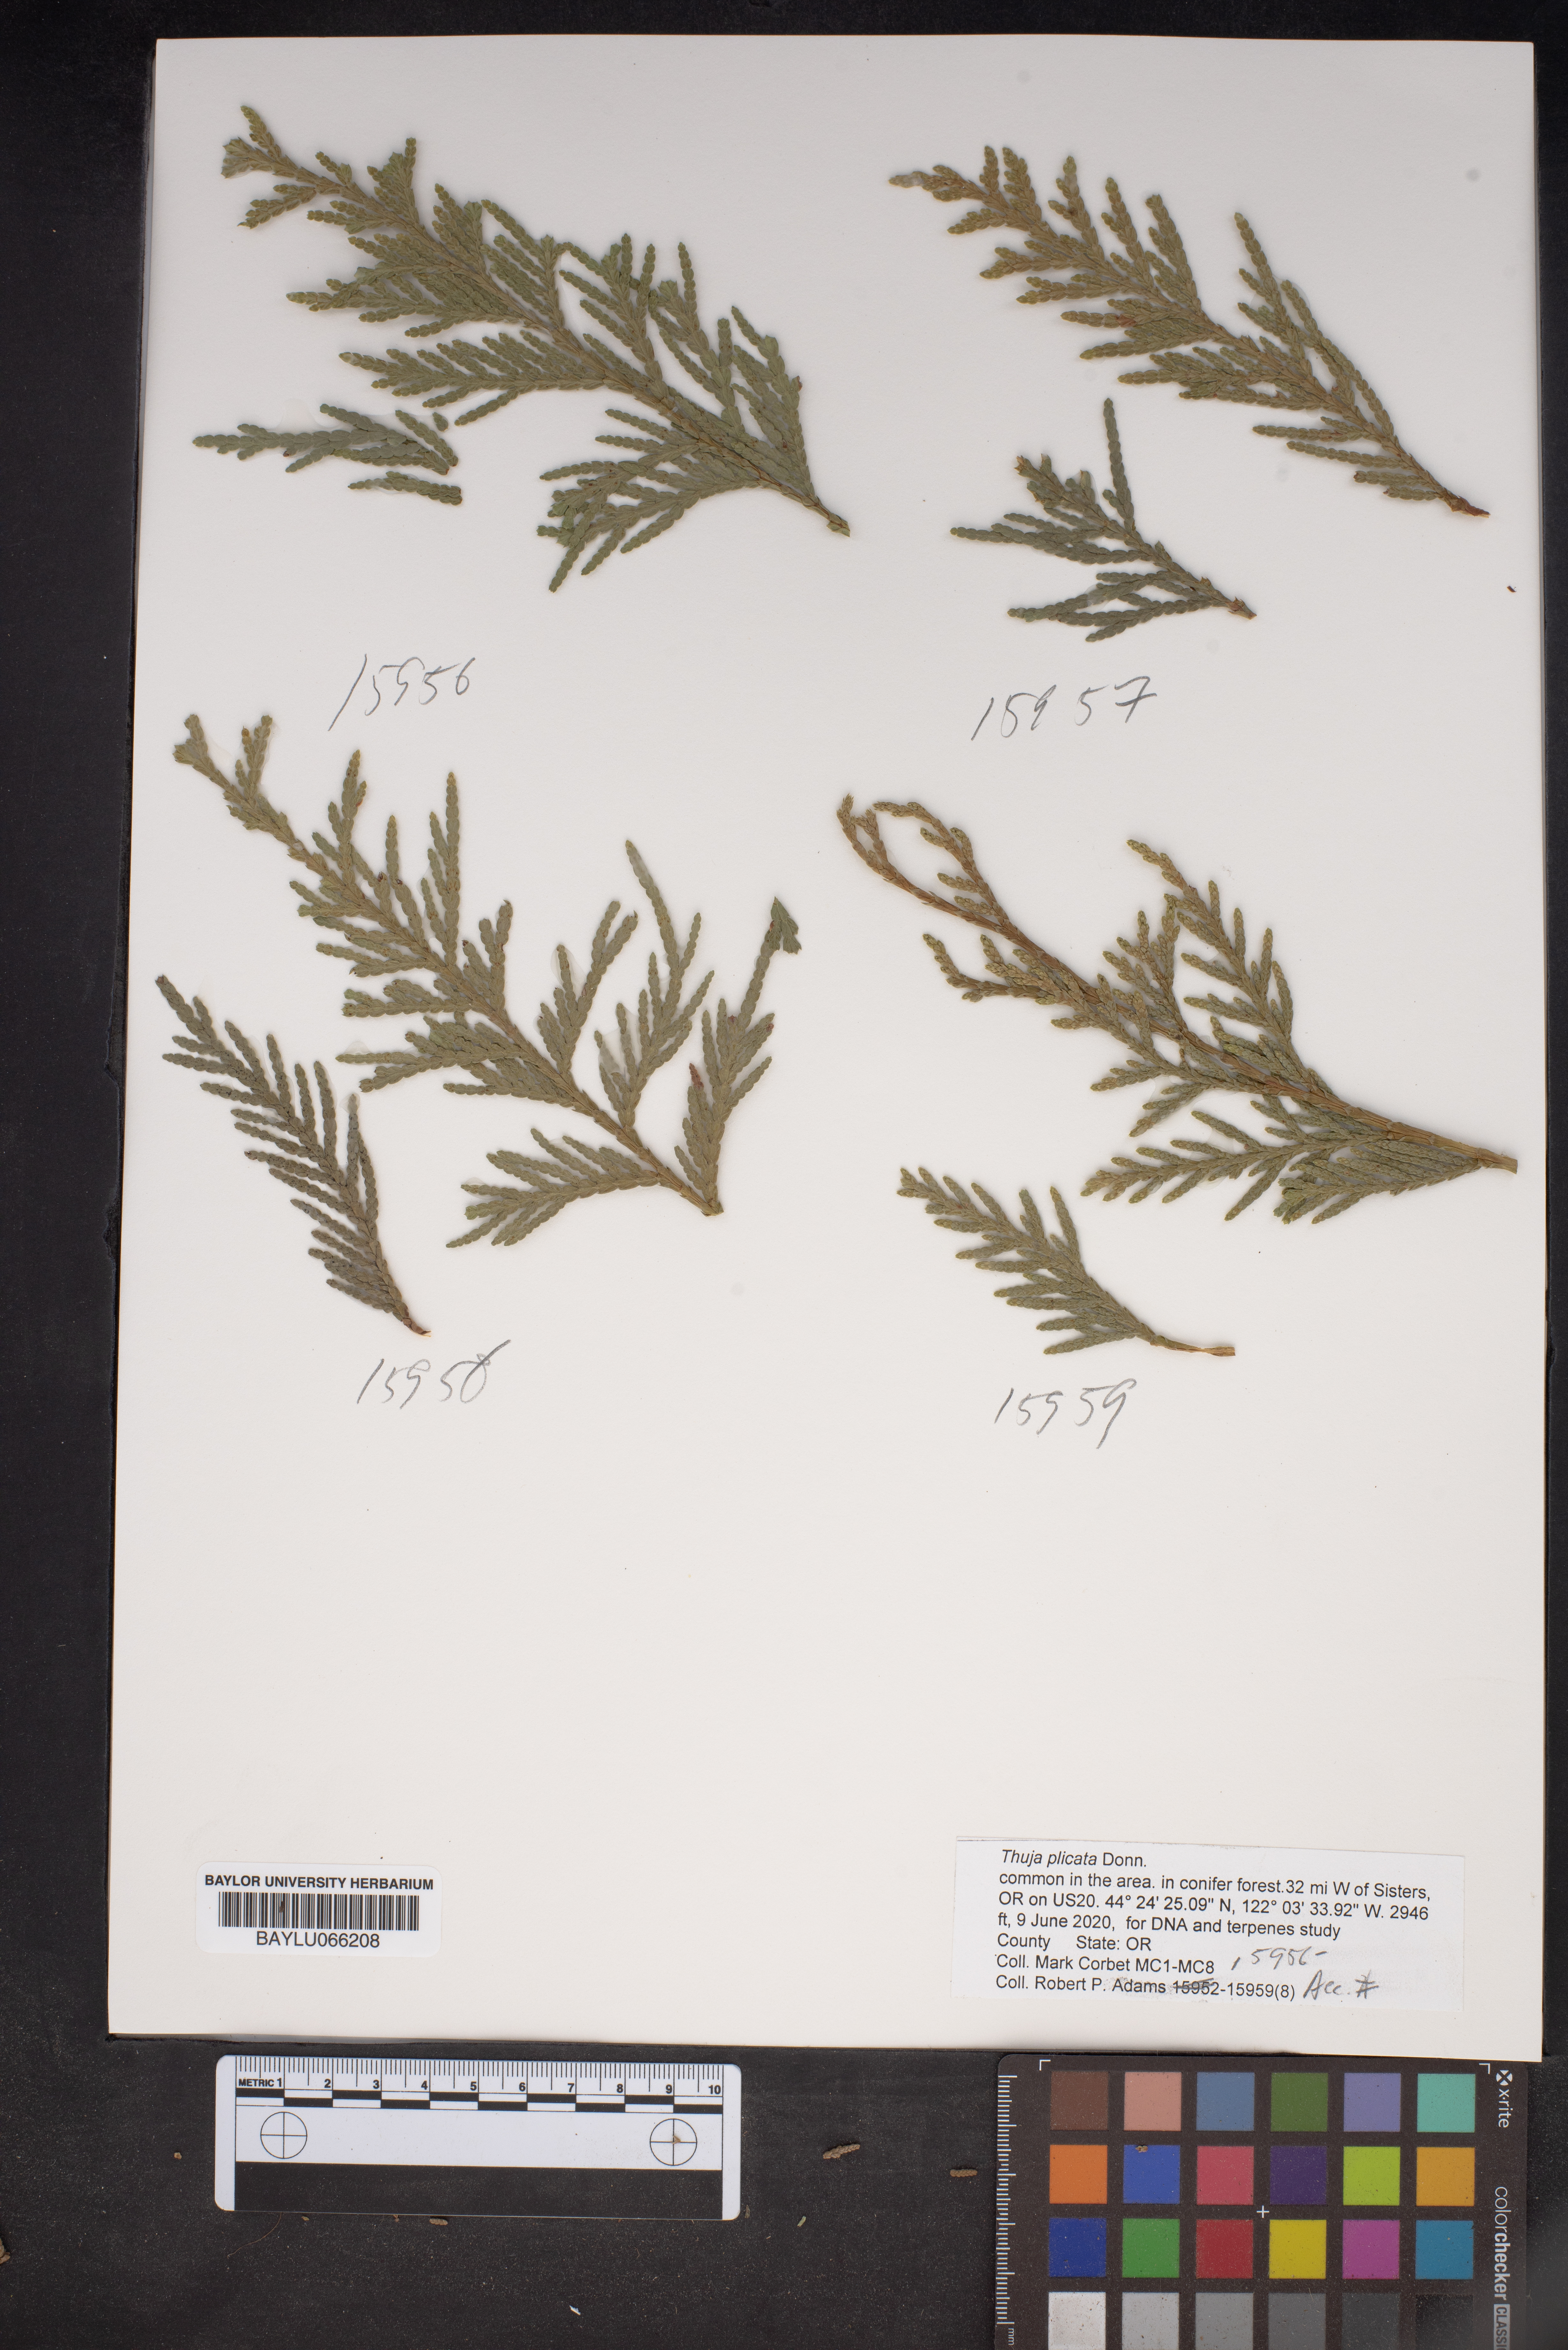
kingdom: Plantae
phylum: Tracheophyta
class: Pinopsida
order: Pinales
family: Cupressaceae
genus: Thuja
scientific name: Thuja plicata
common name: Western red-cedar
